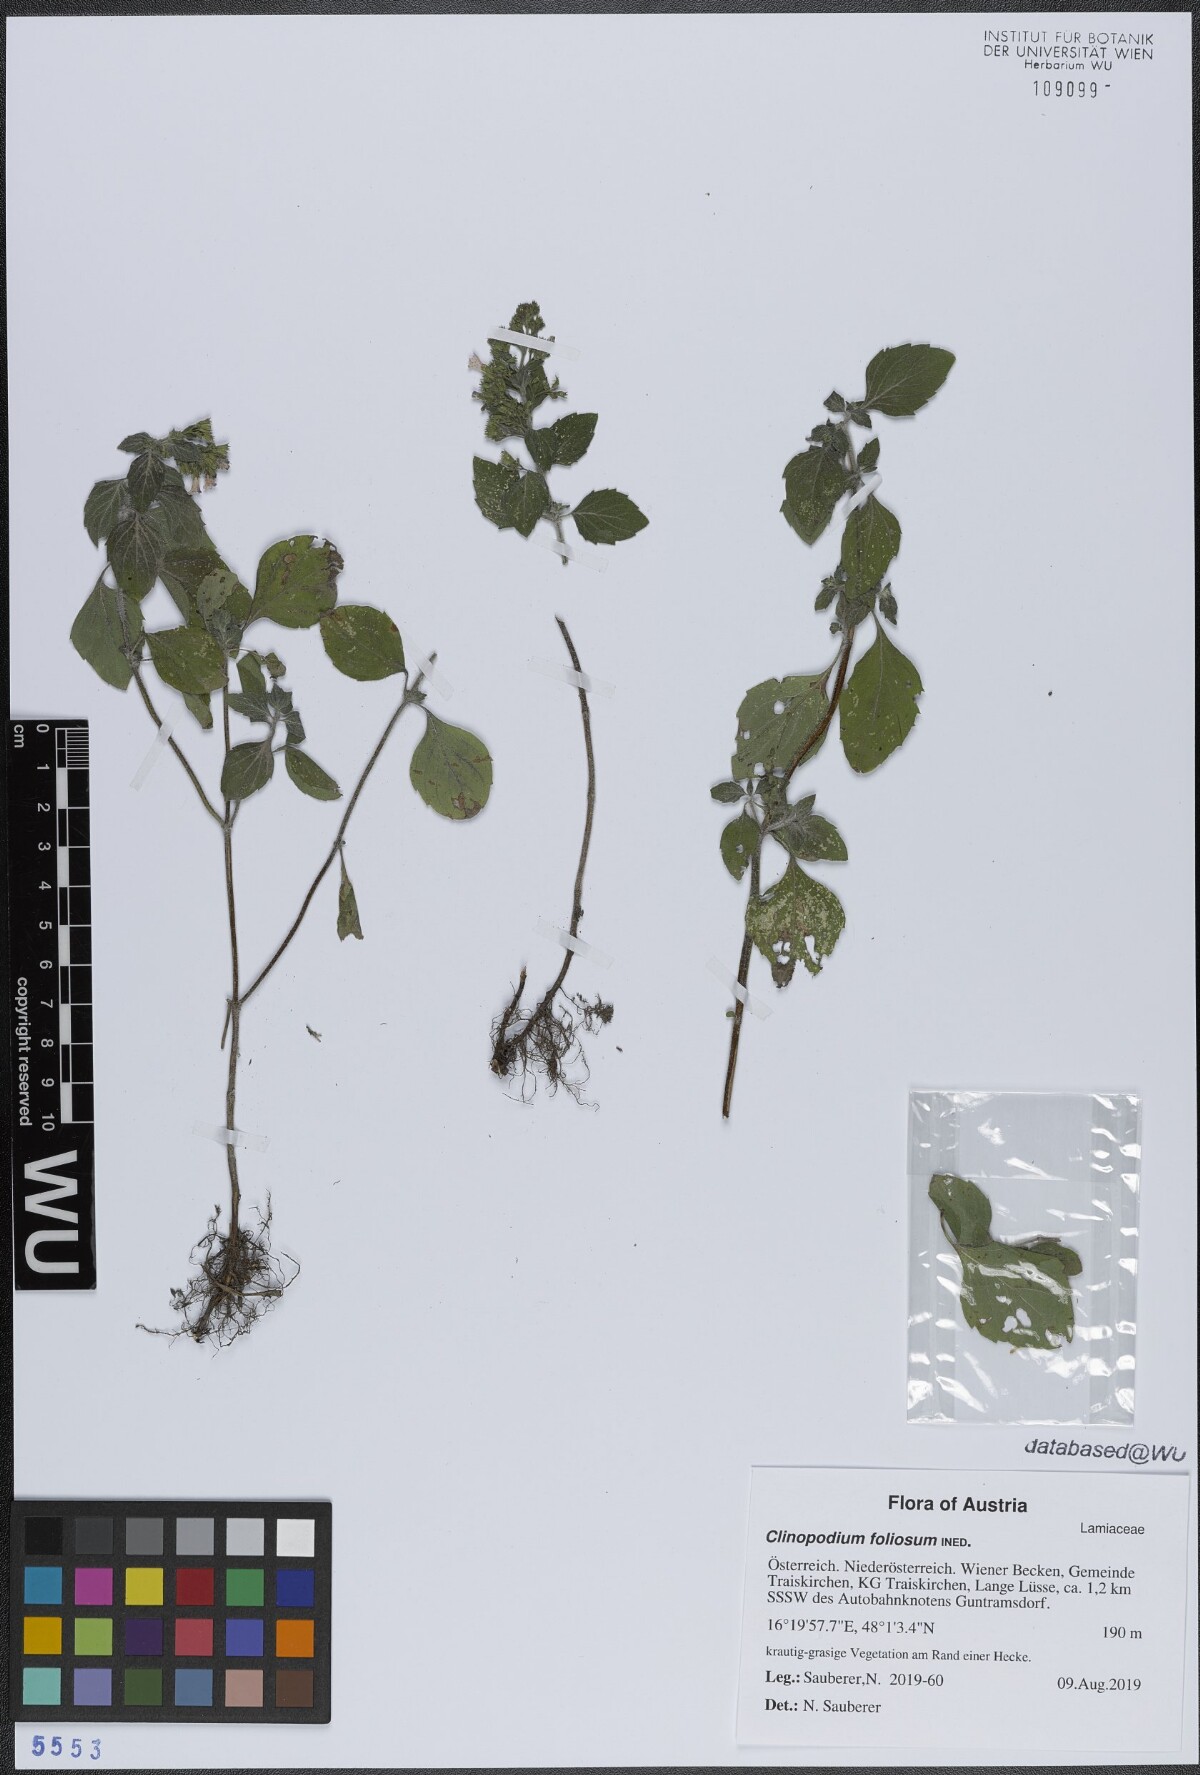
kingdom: Plantae
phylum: Tracheophyta
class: Magnoliopsida
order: Lamiales
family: Lamiaceae
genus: Clinopodium
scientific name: Clinopodium foliolosum
